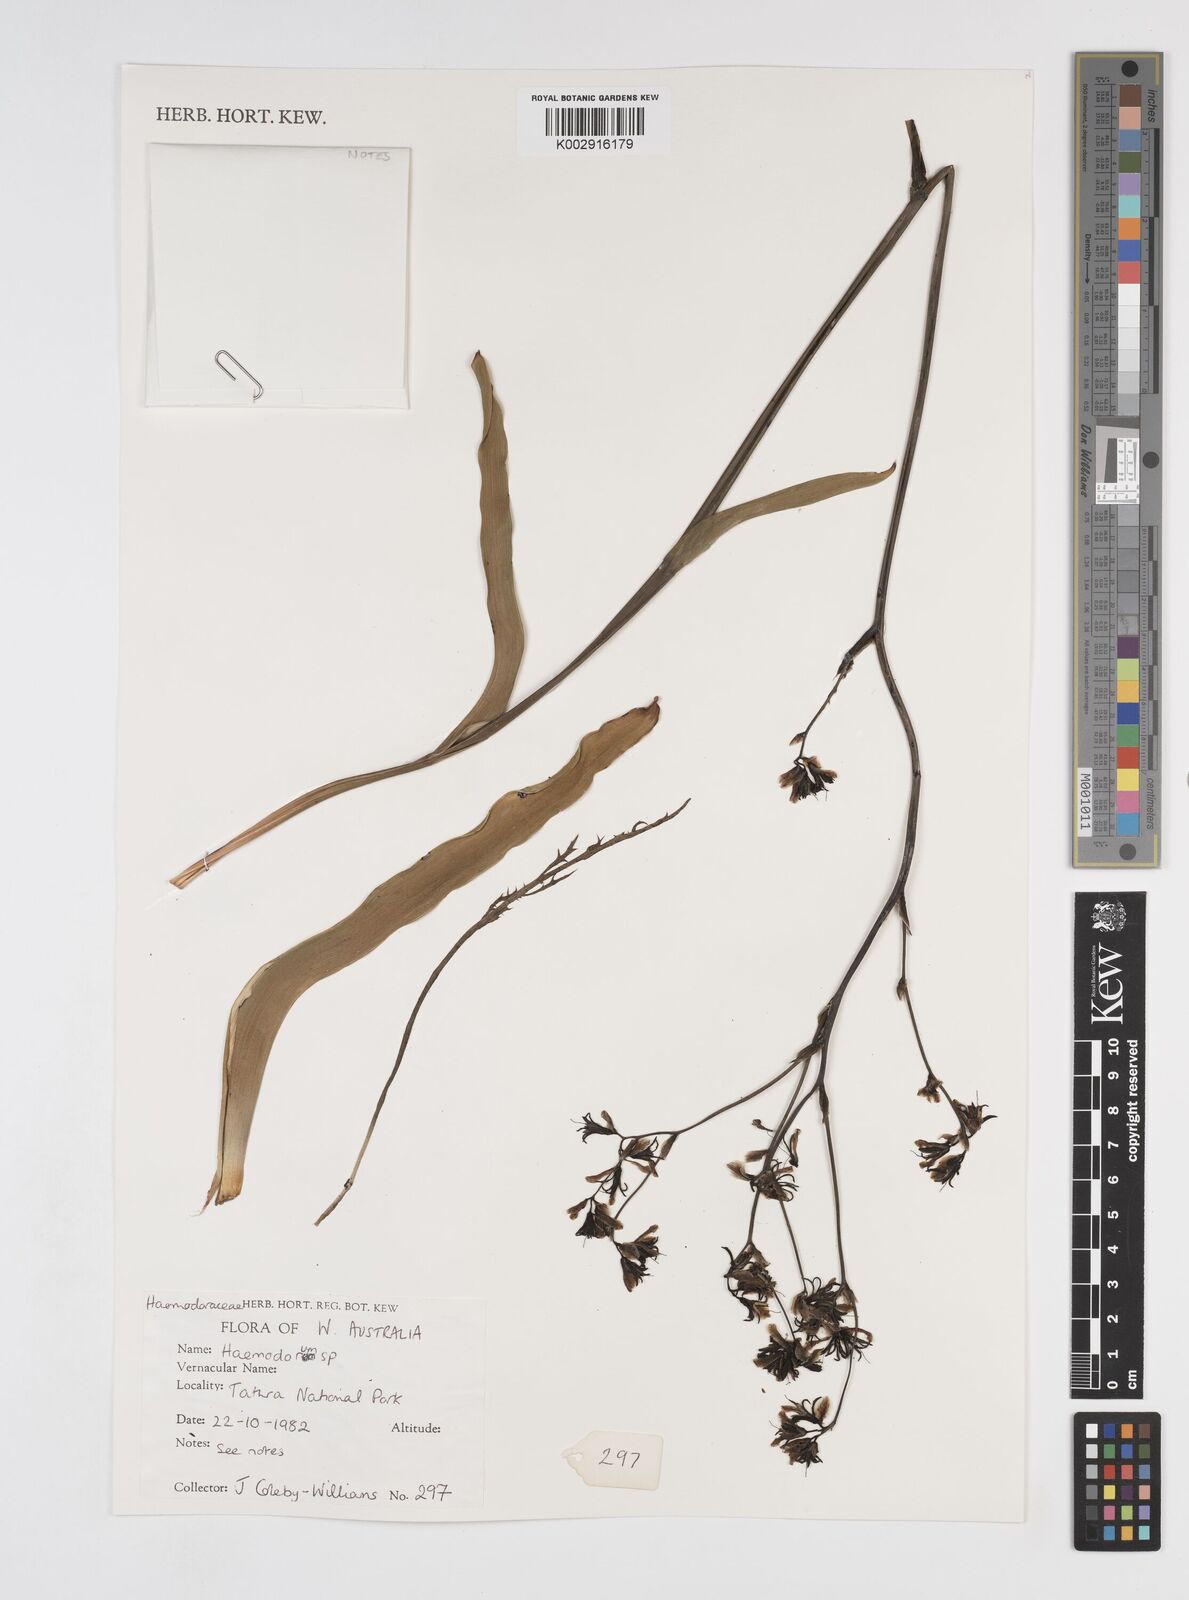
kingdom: Plantae
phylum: Tracheophyta
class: Liliopsida
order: Commelinales
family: Haemodoraceae
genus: Haemodorum
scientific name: Haemodorum
